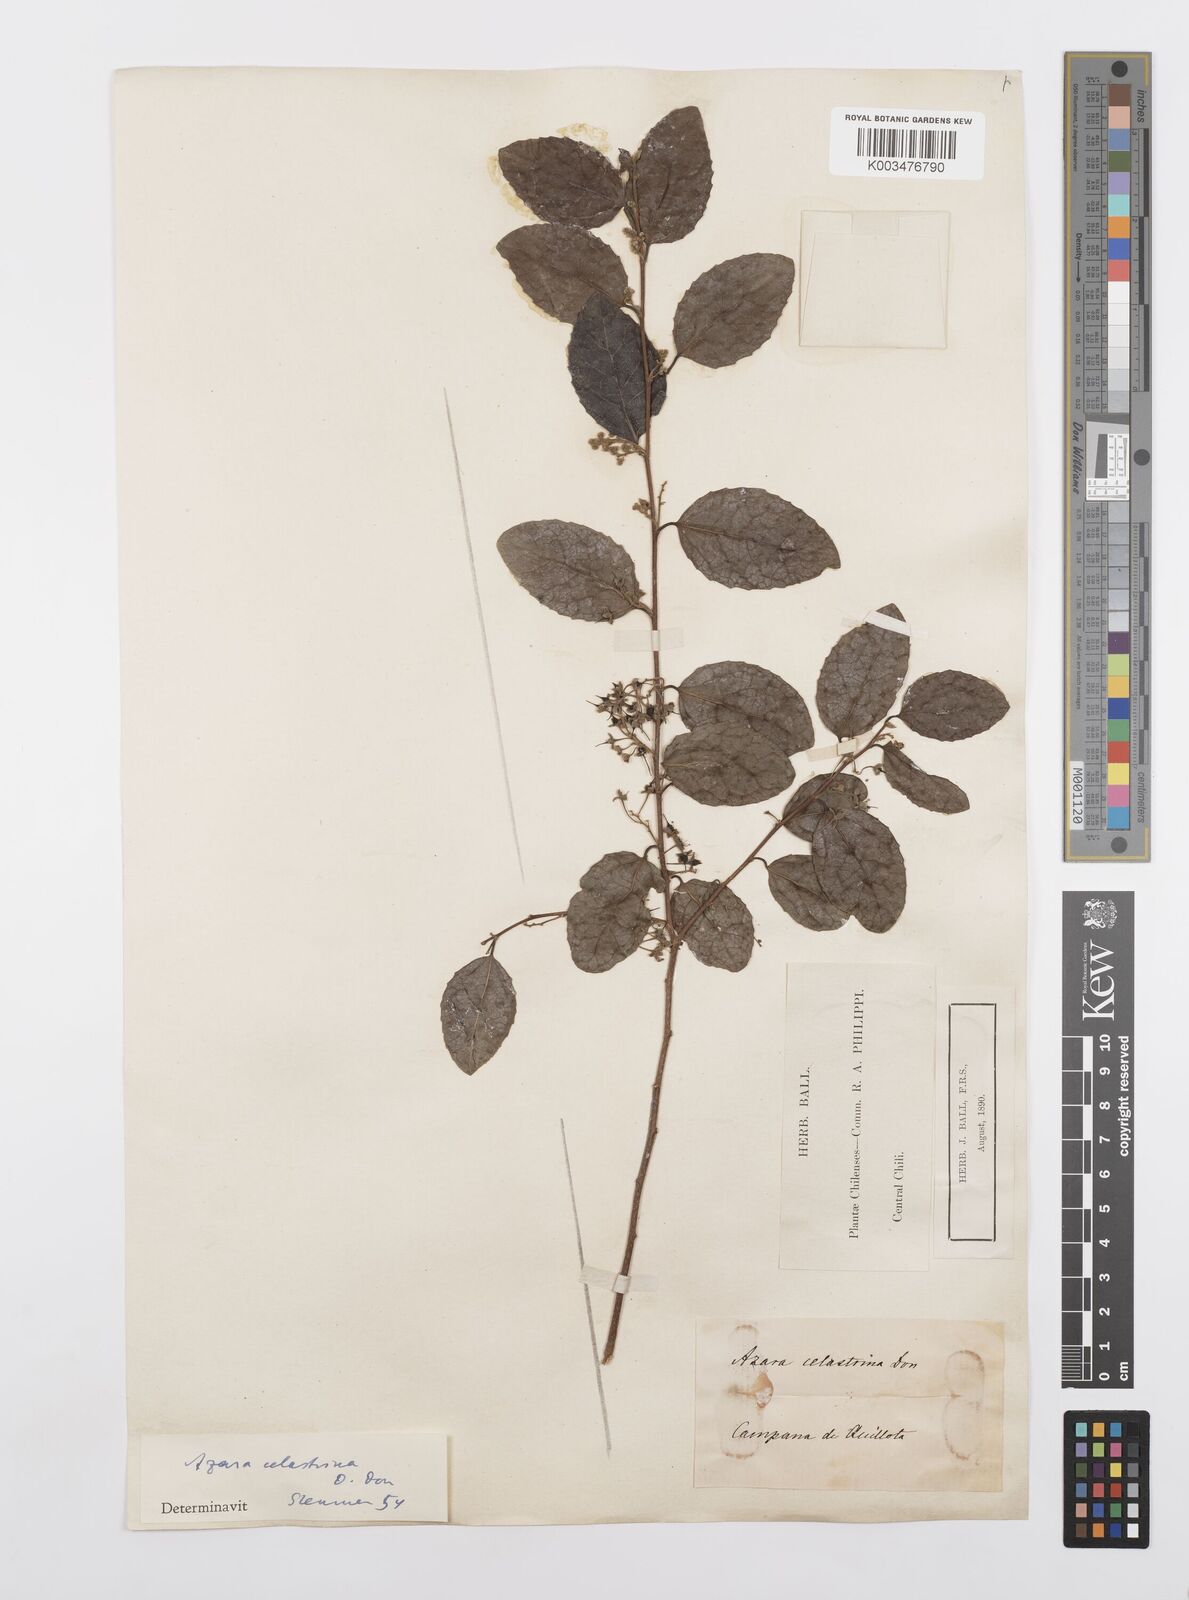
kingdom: Plantae
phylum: Tracheophyta
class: Magnoliopsida
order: Malpighiales
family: Salicaceae
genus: Azara
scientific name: Azara celastrina
